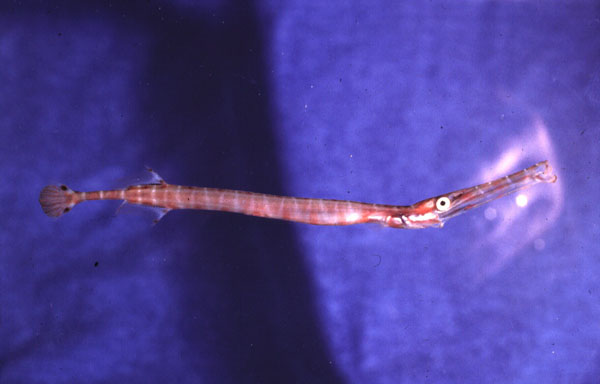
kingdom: Animalia
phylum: Chordata
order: Syngnathiformes
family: Aulostomidae
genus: Aulostomus
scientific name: Aulostomus chinensis
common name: Chinese trumpetfish
